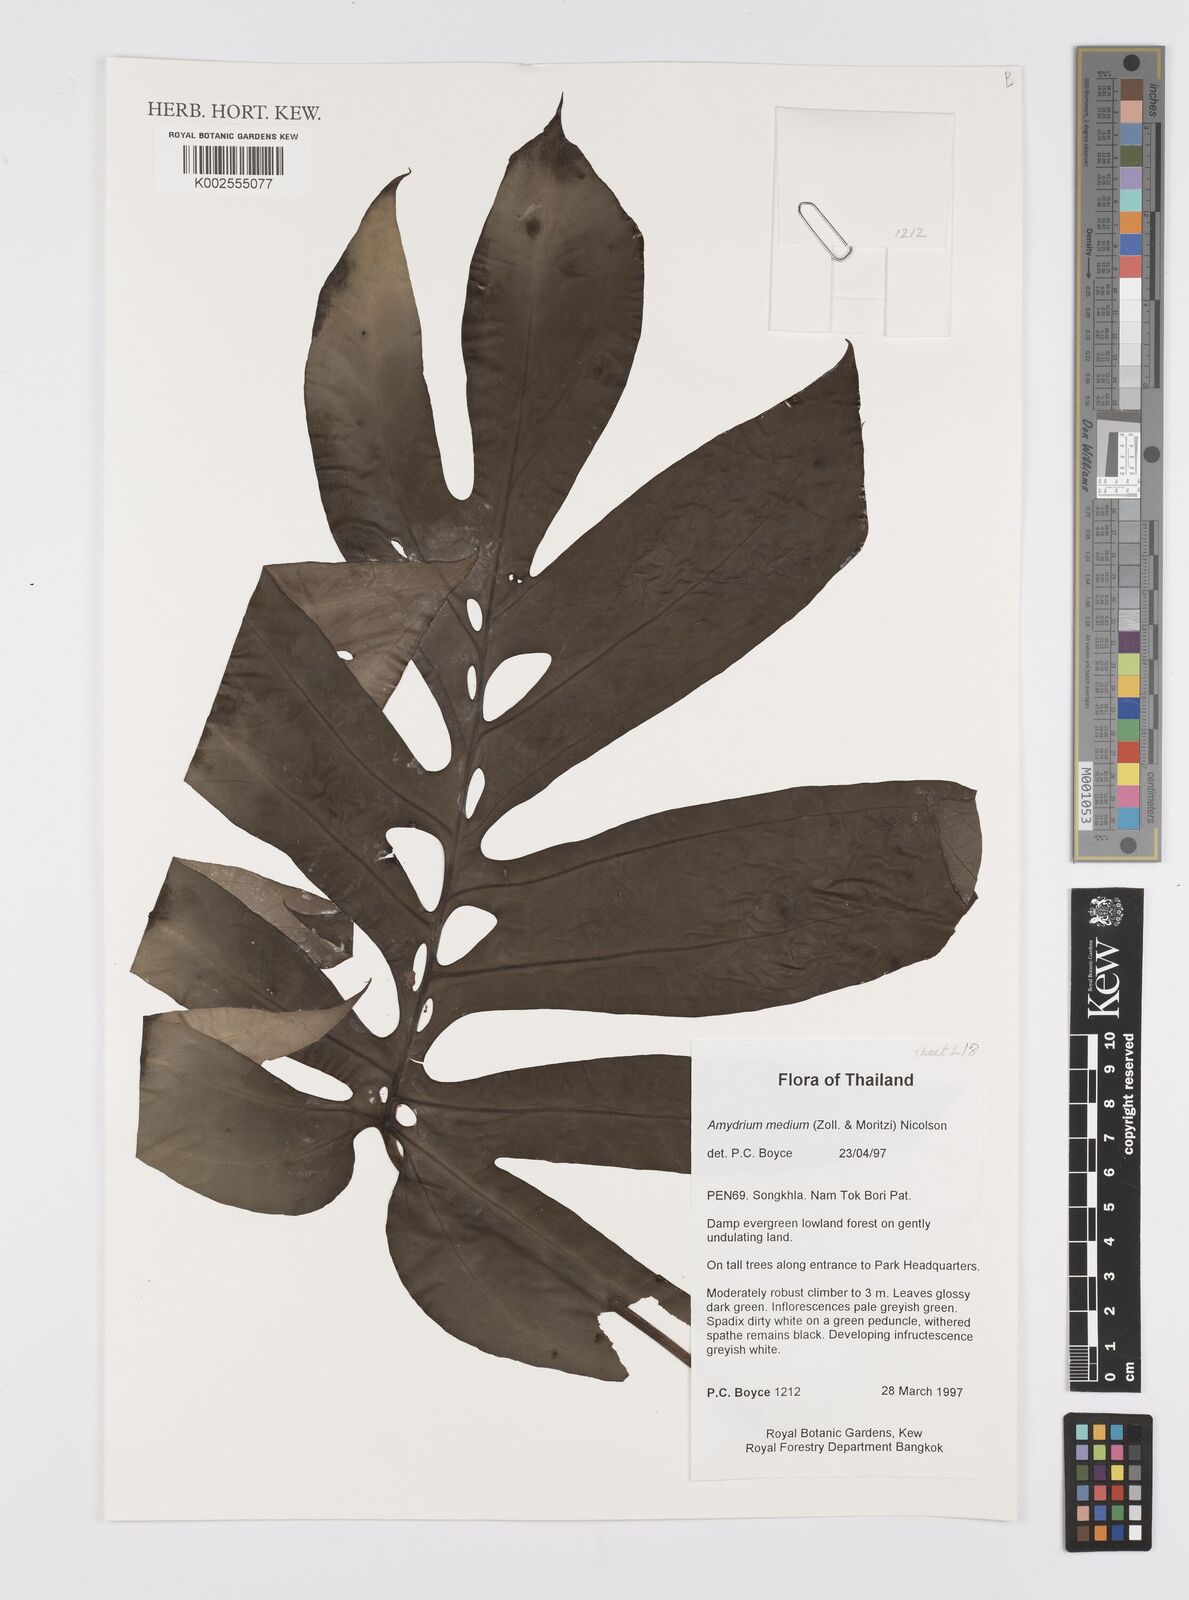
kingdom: Plantae
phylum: Tracheophyta
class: Liliopsida
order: Alismatales
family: Araceae
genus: Amydrium
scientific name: Amydrium medium
